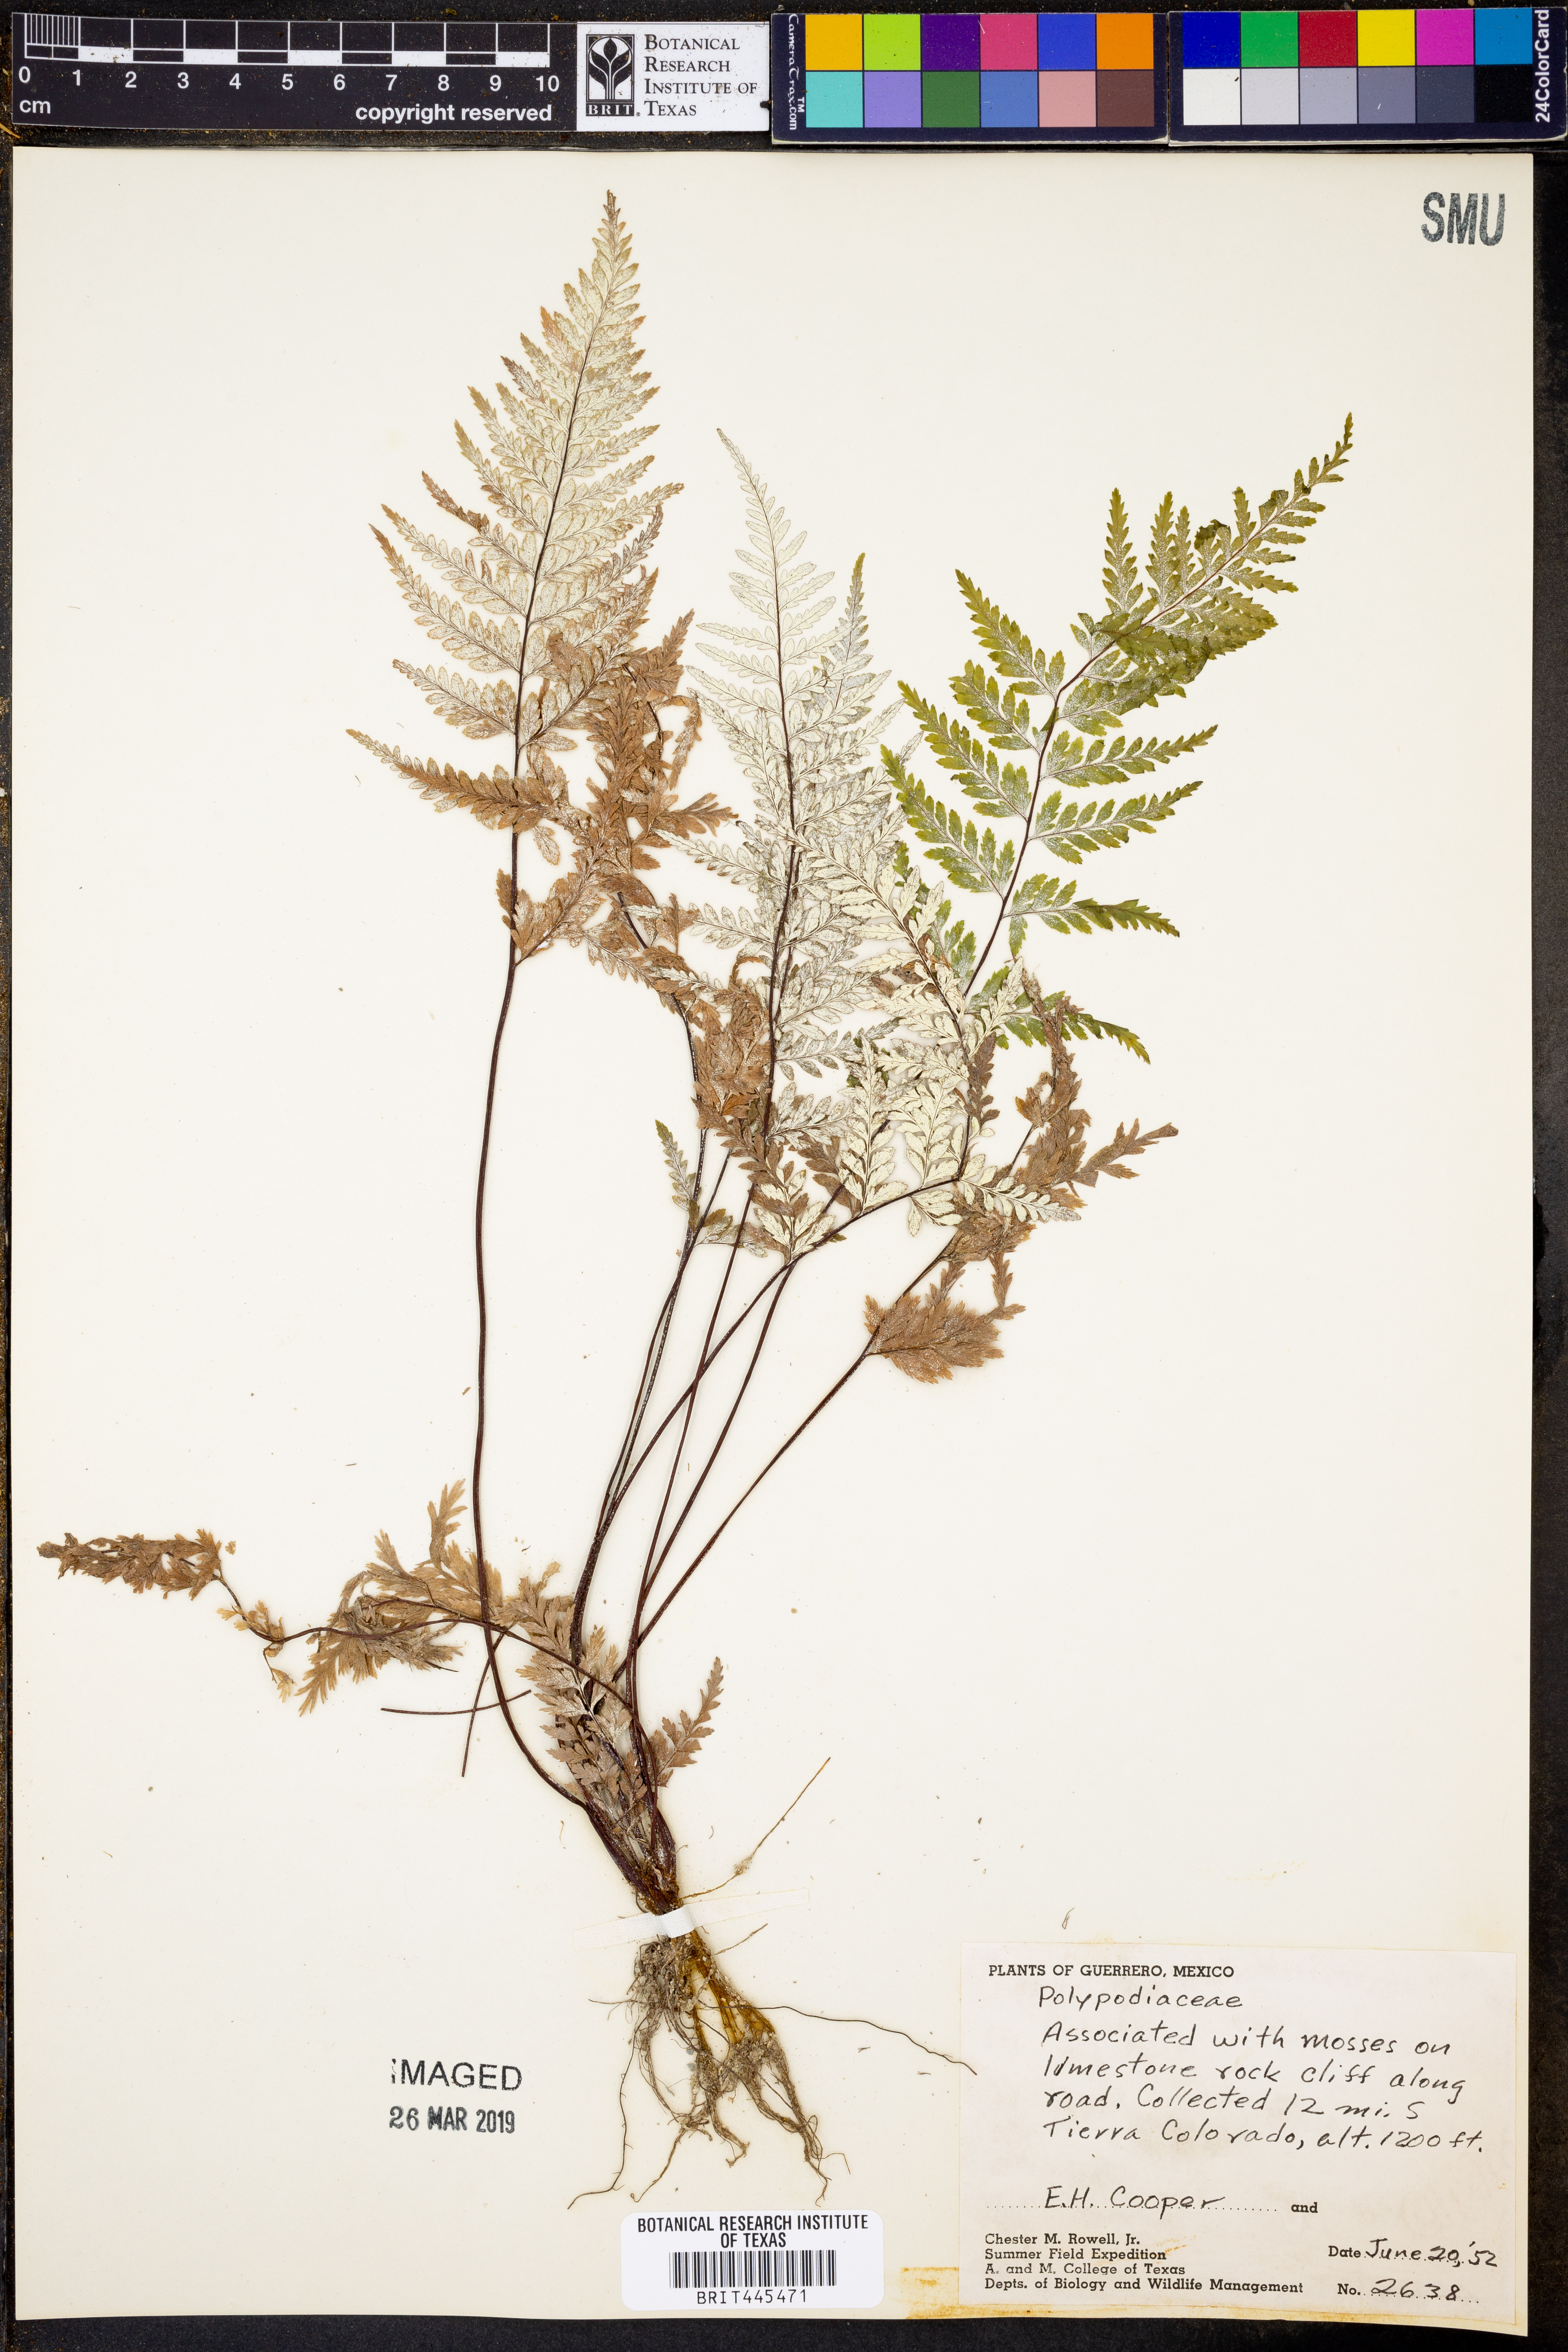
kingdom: Plantae
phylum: Tracheophyta
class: Polypodiopsida
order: Polypodiales
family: Polypodiaceae
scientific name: Polypodiaceae
